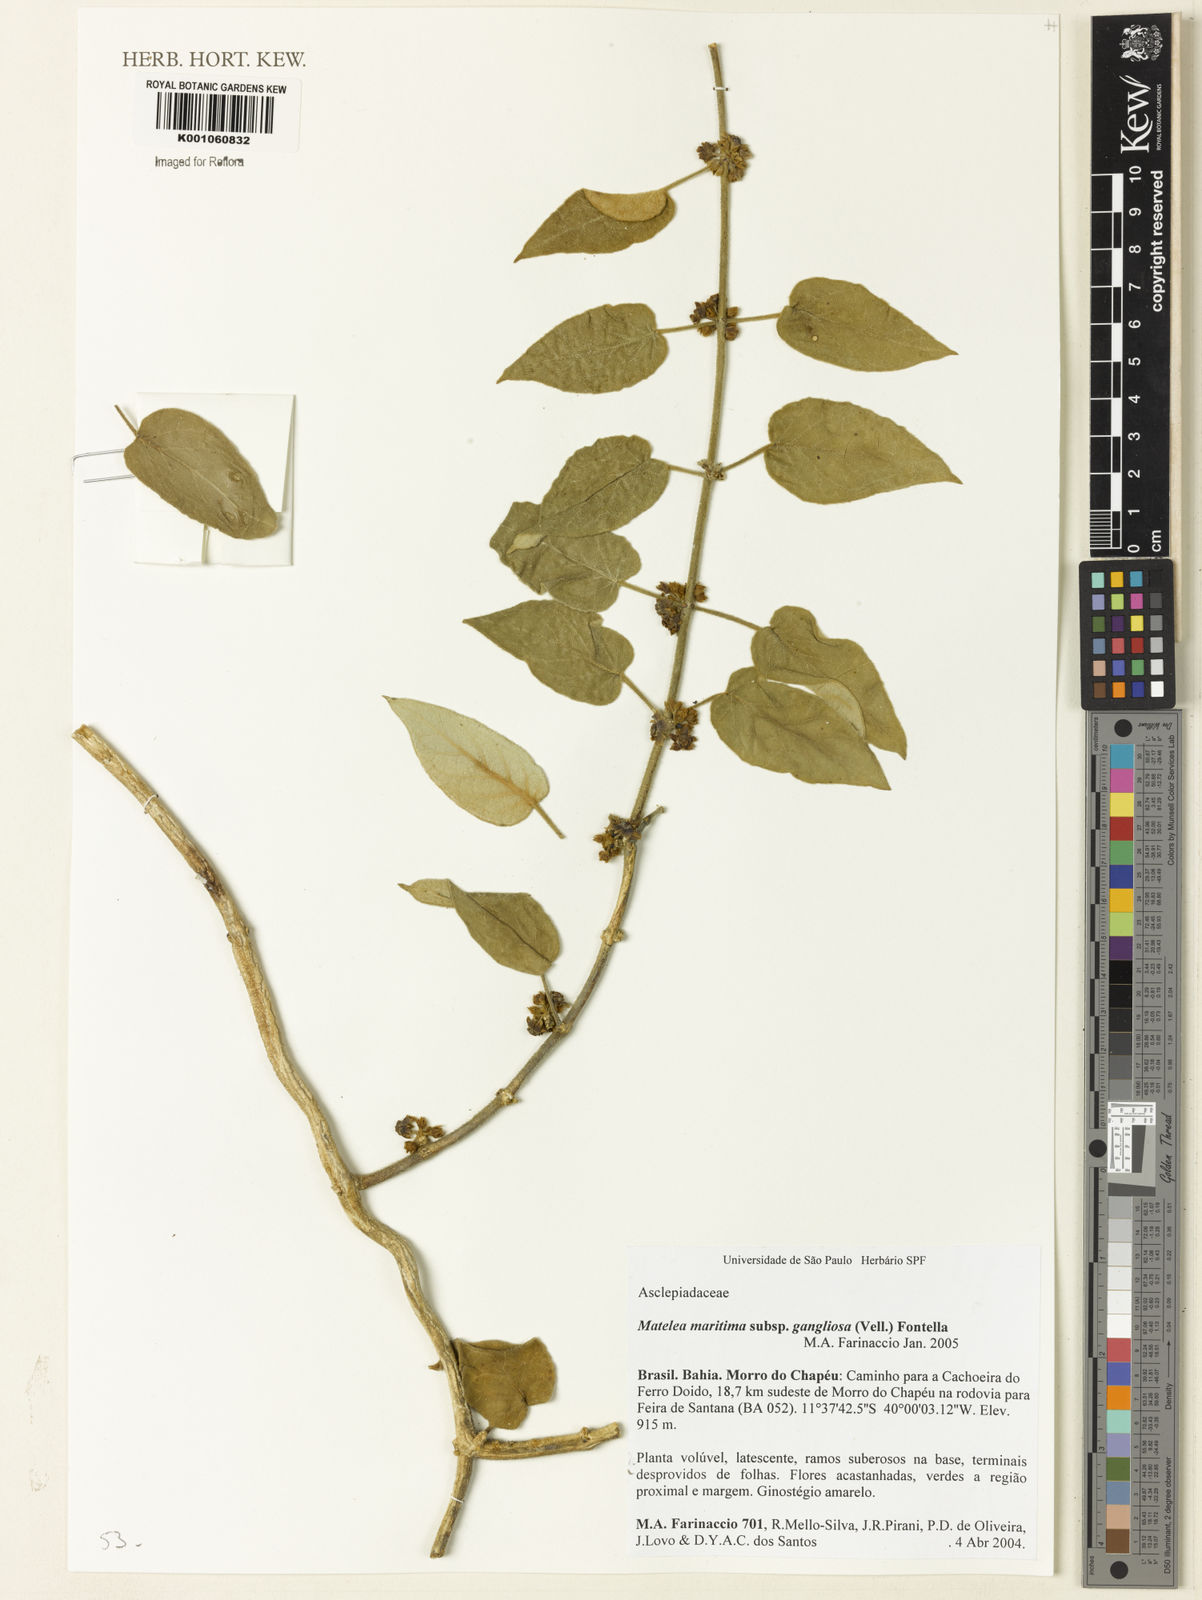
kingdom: Plantae
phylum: Tracheophyta
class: Magnoliopsida
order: Gentianales
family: Apocynaceae
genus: Ibatia
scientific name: Ibatia ganglinosa
